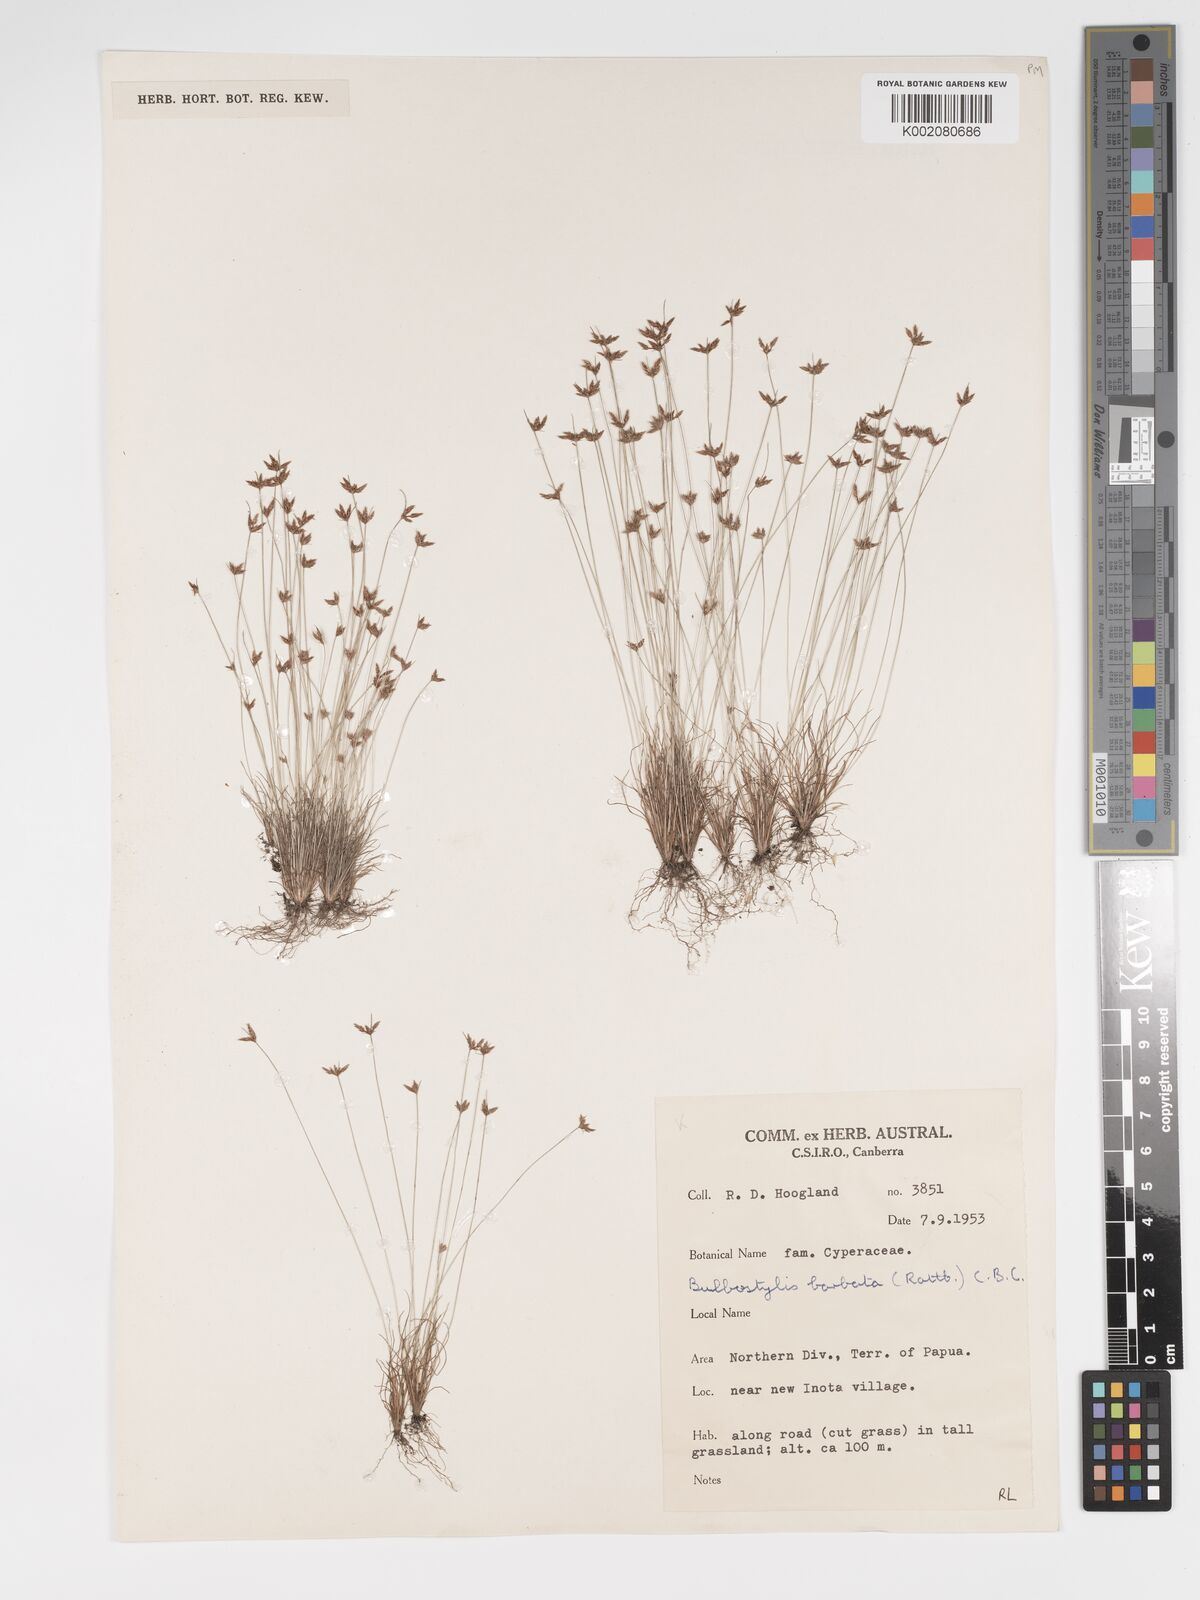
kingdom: Plantae
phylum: Tracheophyta
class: Liliopsida
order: Poales
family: Cyperaceae
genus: Bulbostylis
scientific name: Bulbostylis barbata
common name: Watergrass
